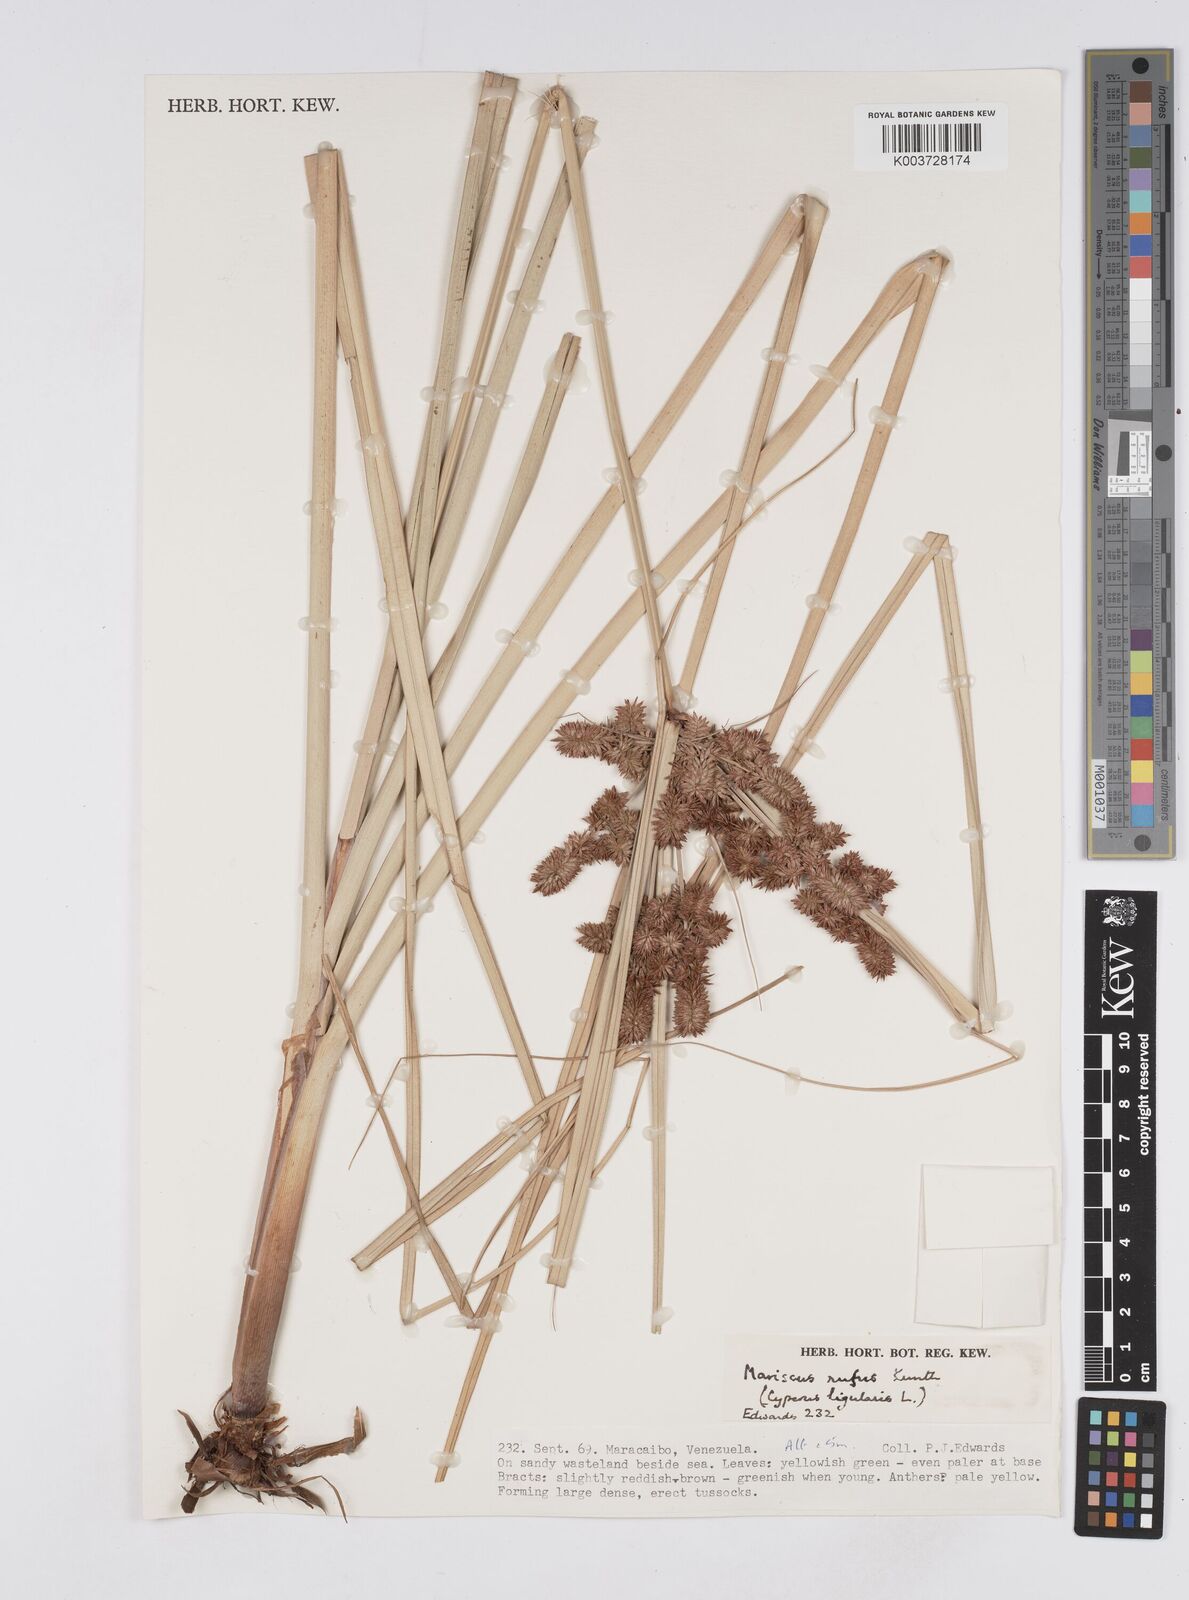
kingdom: Plantae
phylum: Tracheophyta
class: Liliopsida
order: Poales
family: Cyperaceae
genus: Cyperus
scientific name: Cyperus ligularis
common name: Swamp flat sedge
